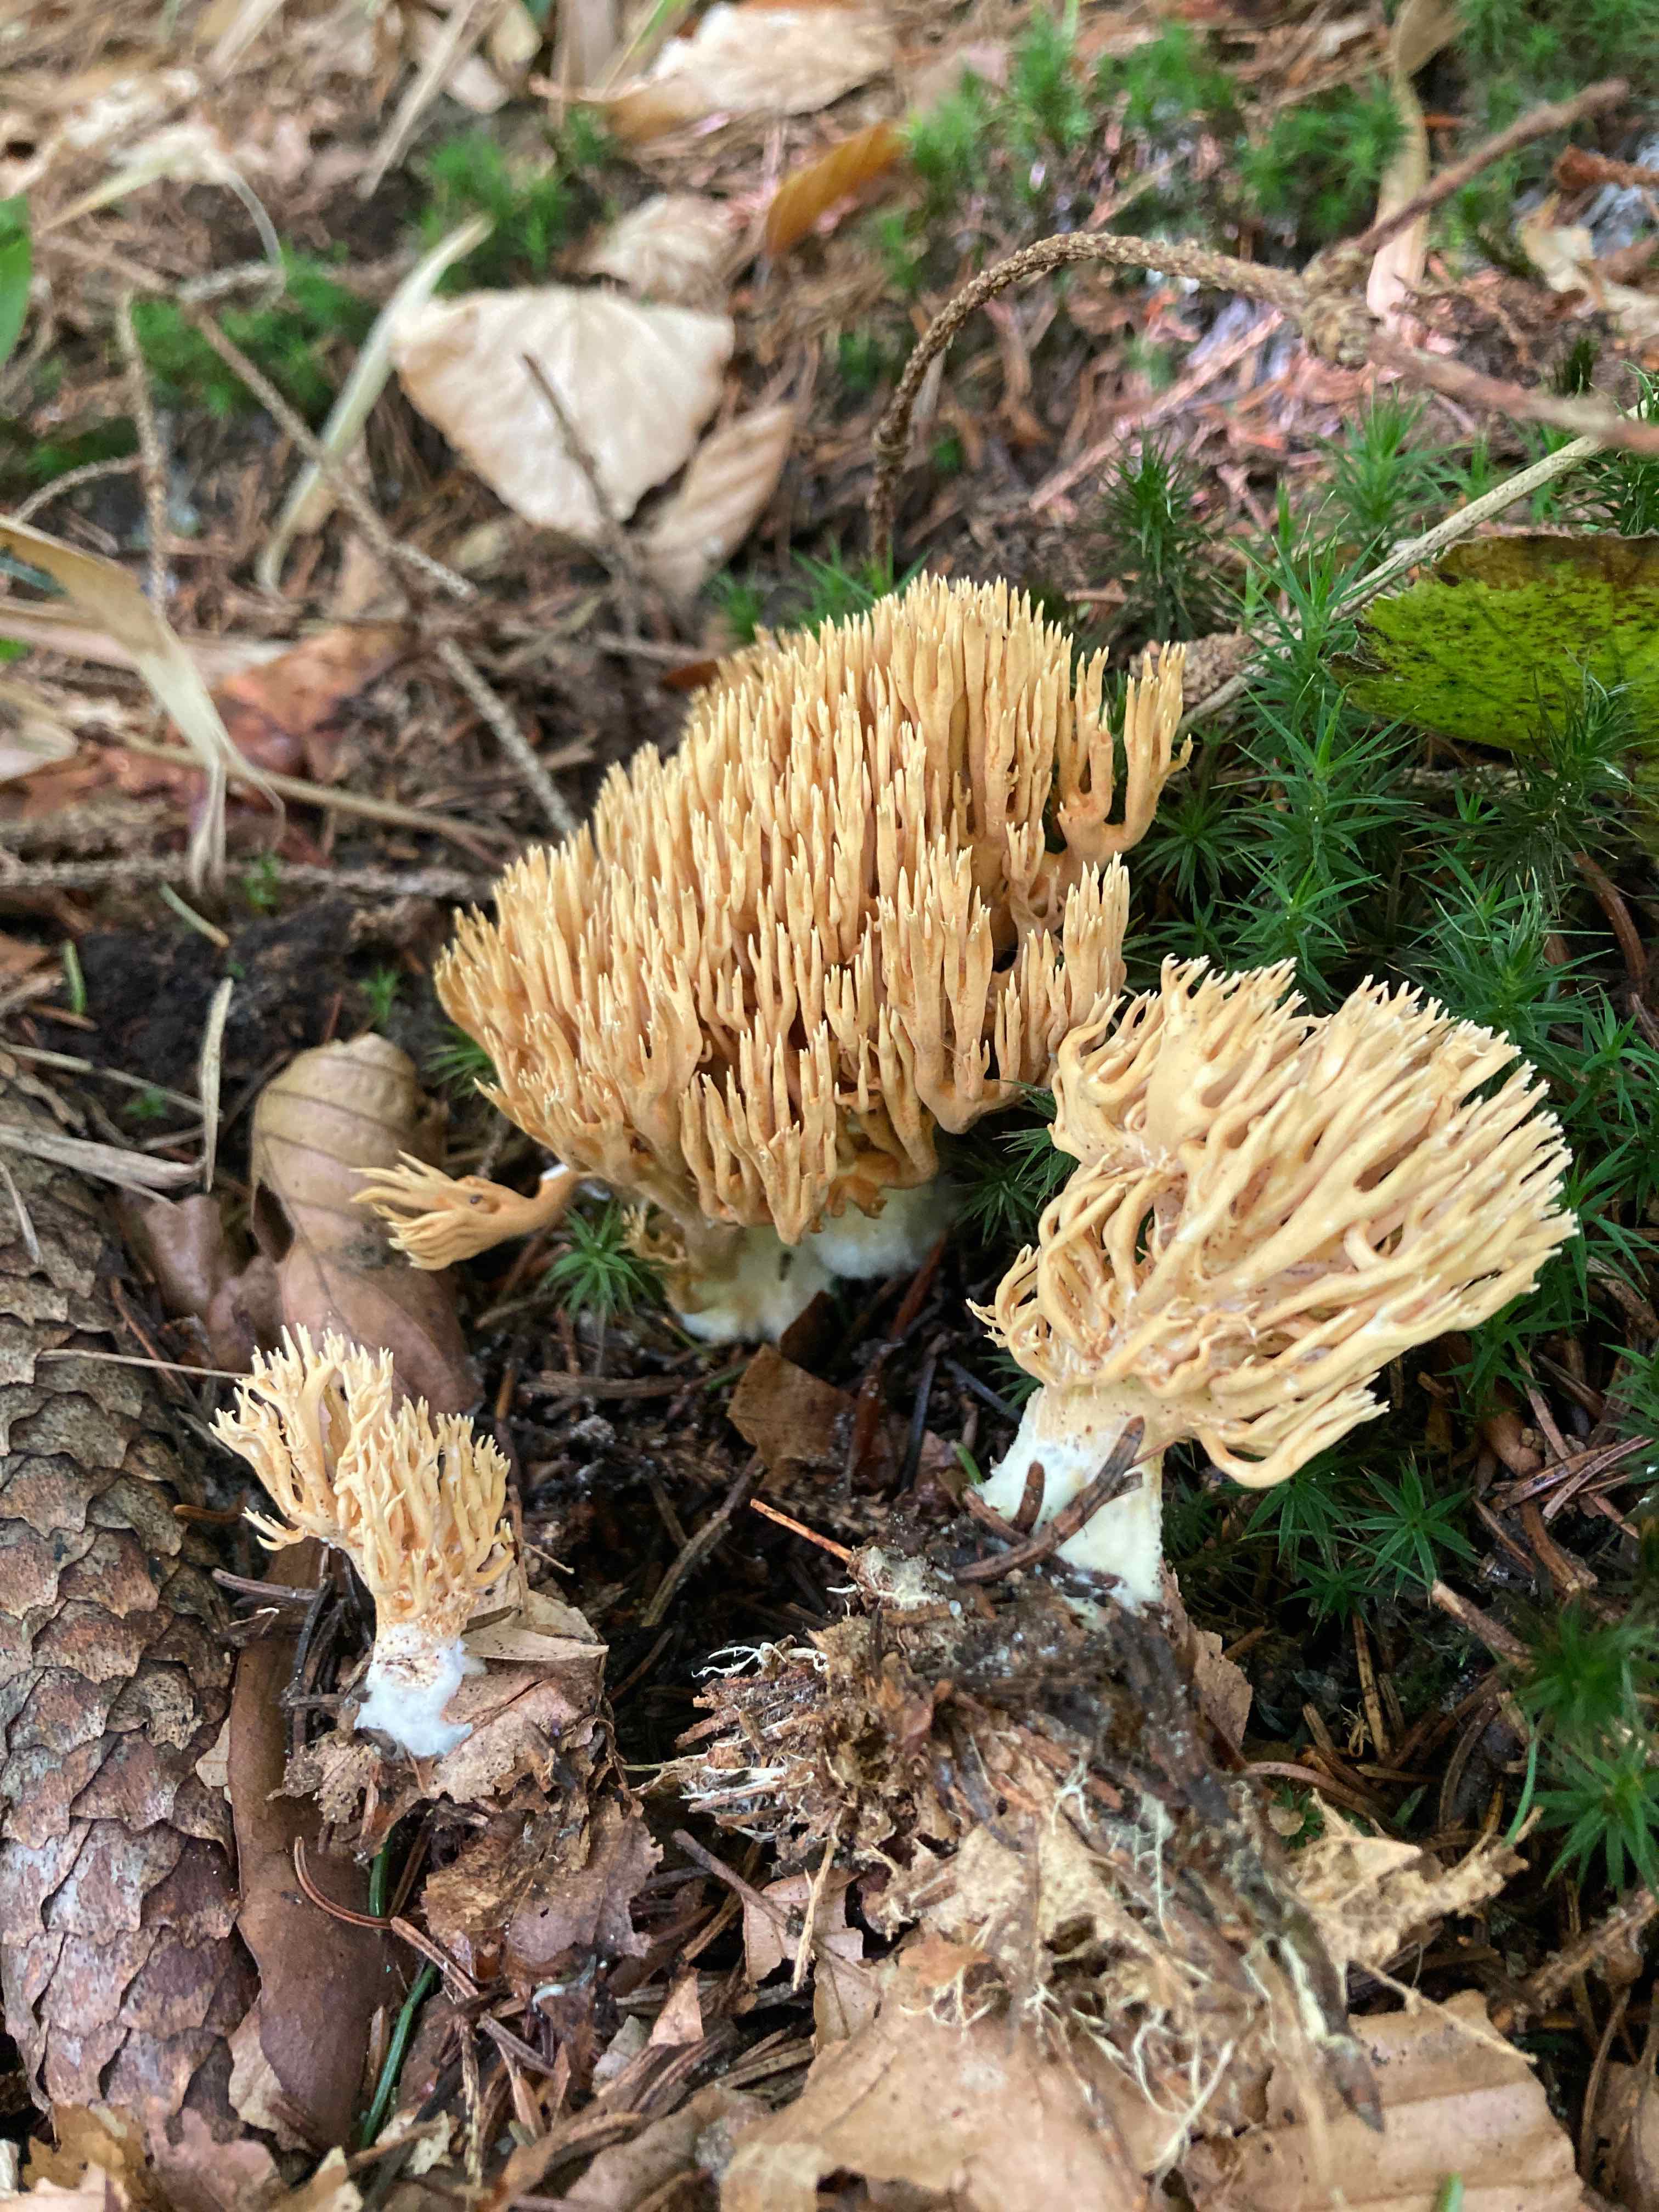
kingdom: Fungi
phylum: Basidiomycota
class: Agaricomycetes
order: Gomphales
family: Gomphaceae
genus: Phaeoclavulina
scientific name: Phaeoclavulina eumorpha
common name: gran-koralsvamp
